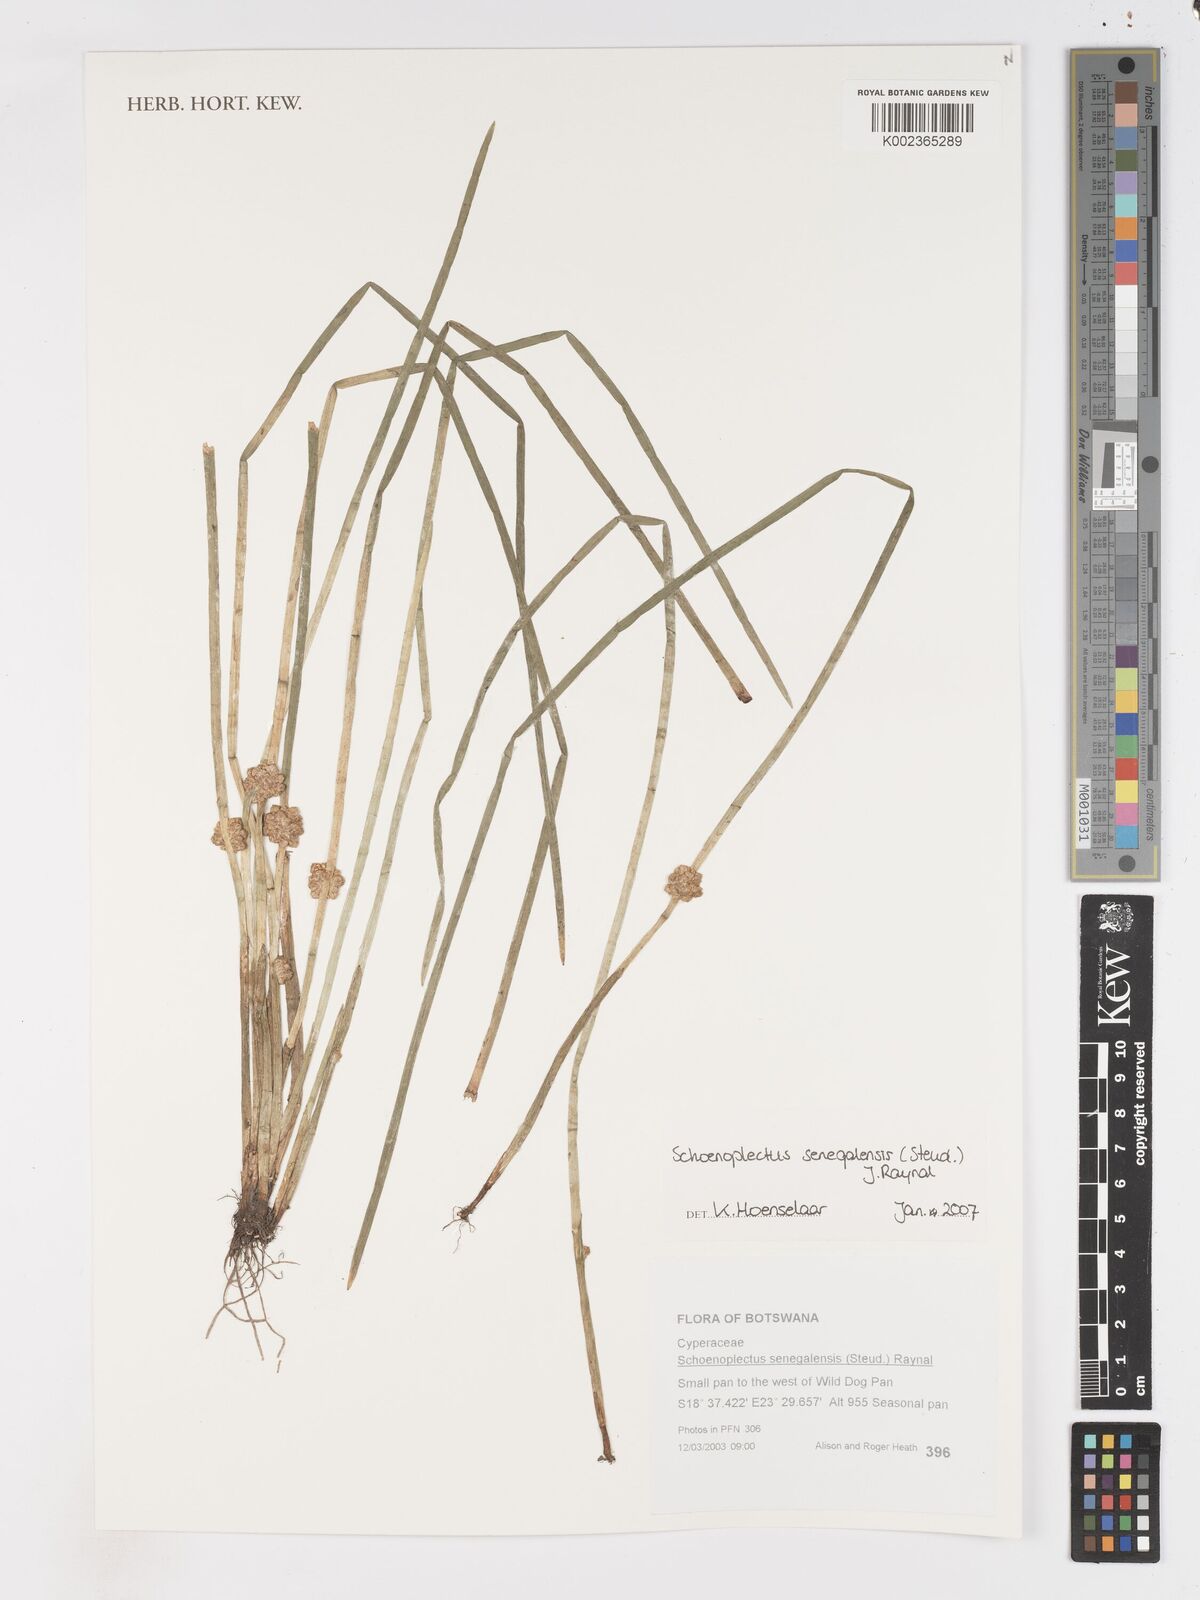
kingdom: Plantae
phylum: Tracheophyta
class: Liliopsida
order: Poales
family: Cyperaceae
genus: Schoenoplectiella
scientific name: Schoenoplectiella senegalensis
